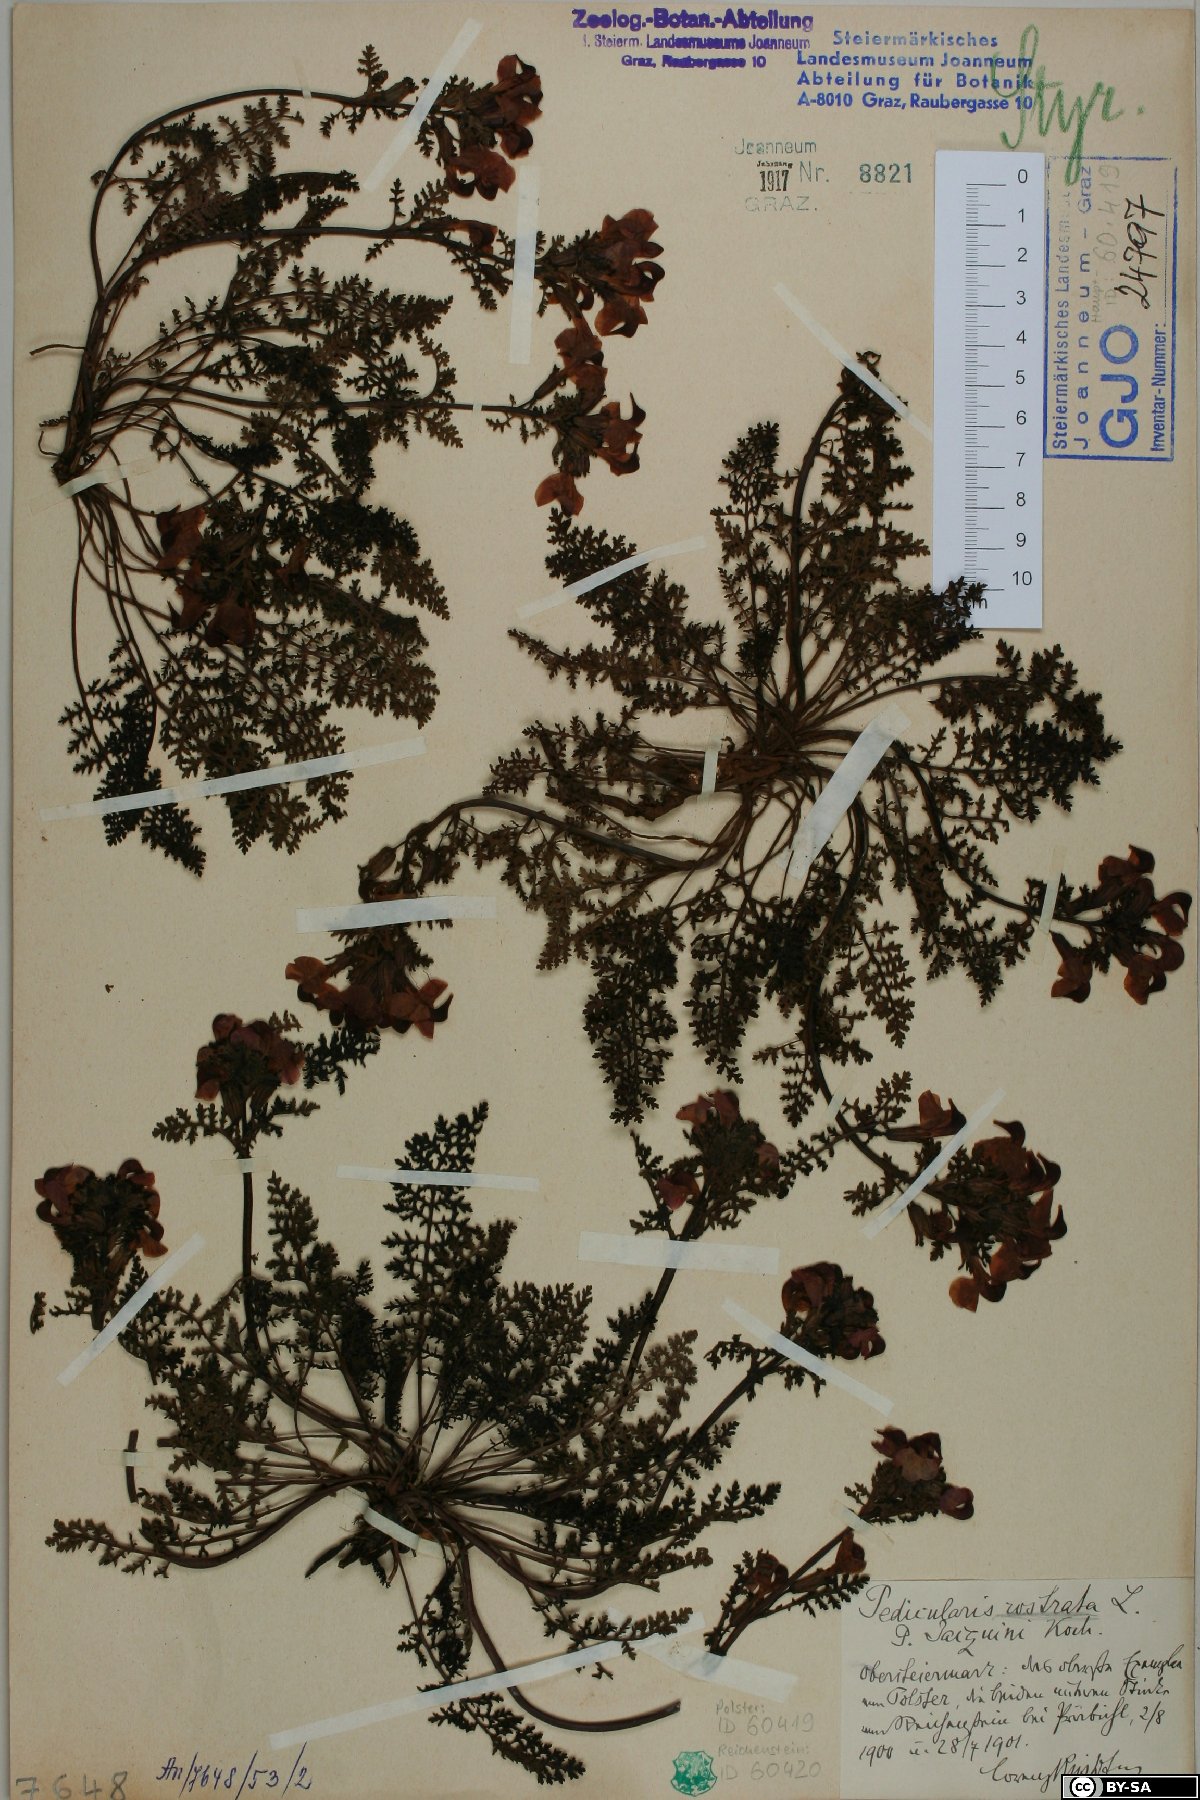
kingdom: Plantae
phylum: Tracheophyta
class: Magnoliopsida
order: Lamiales
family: Orobanchaceae
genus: Pedicularis
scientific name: Pedicularis rostratocapitata
